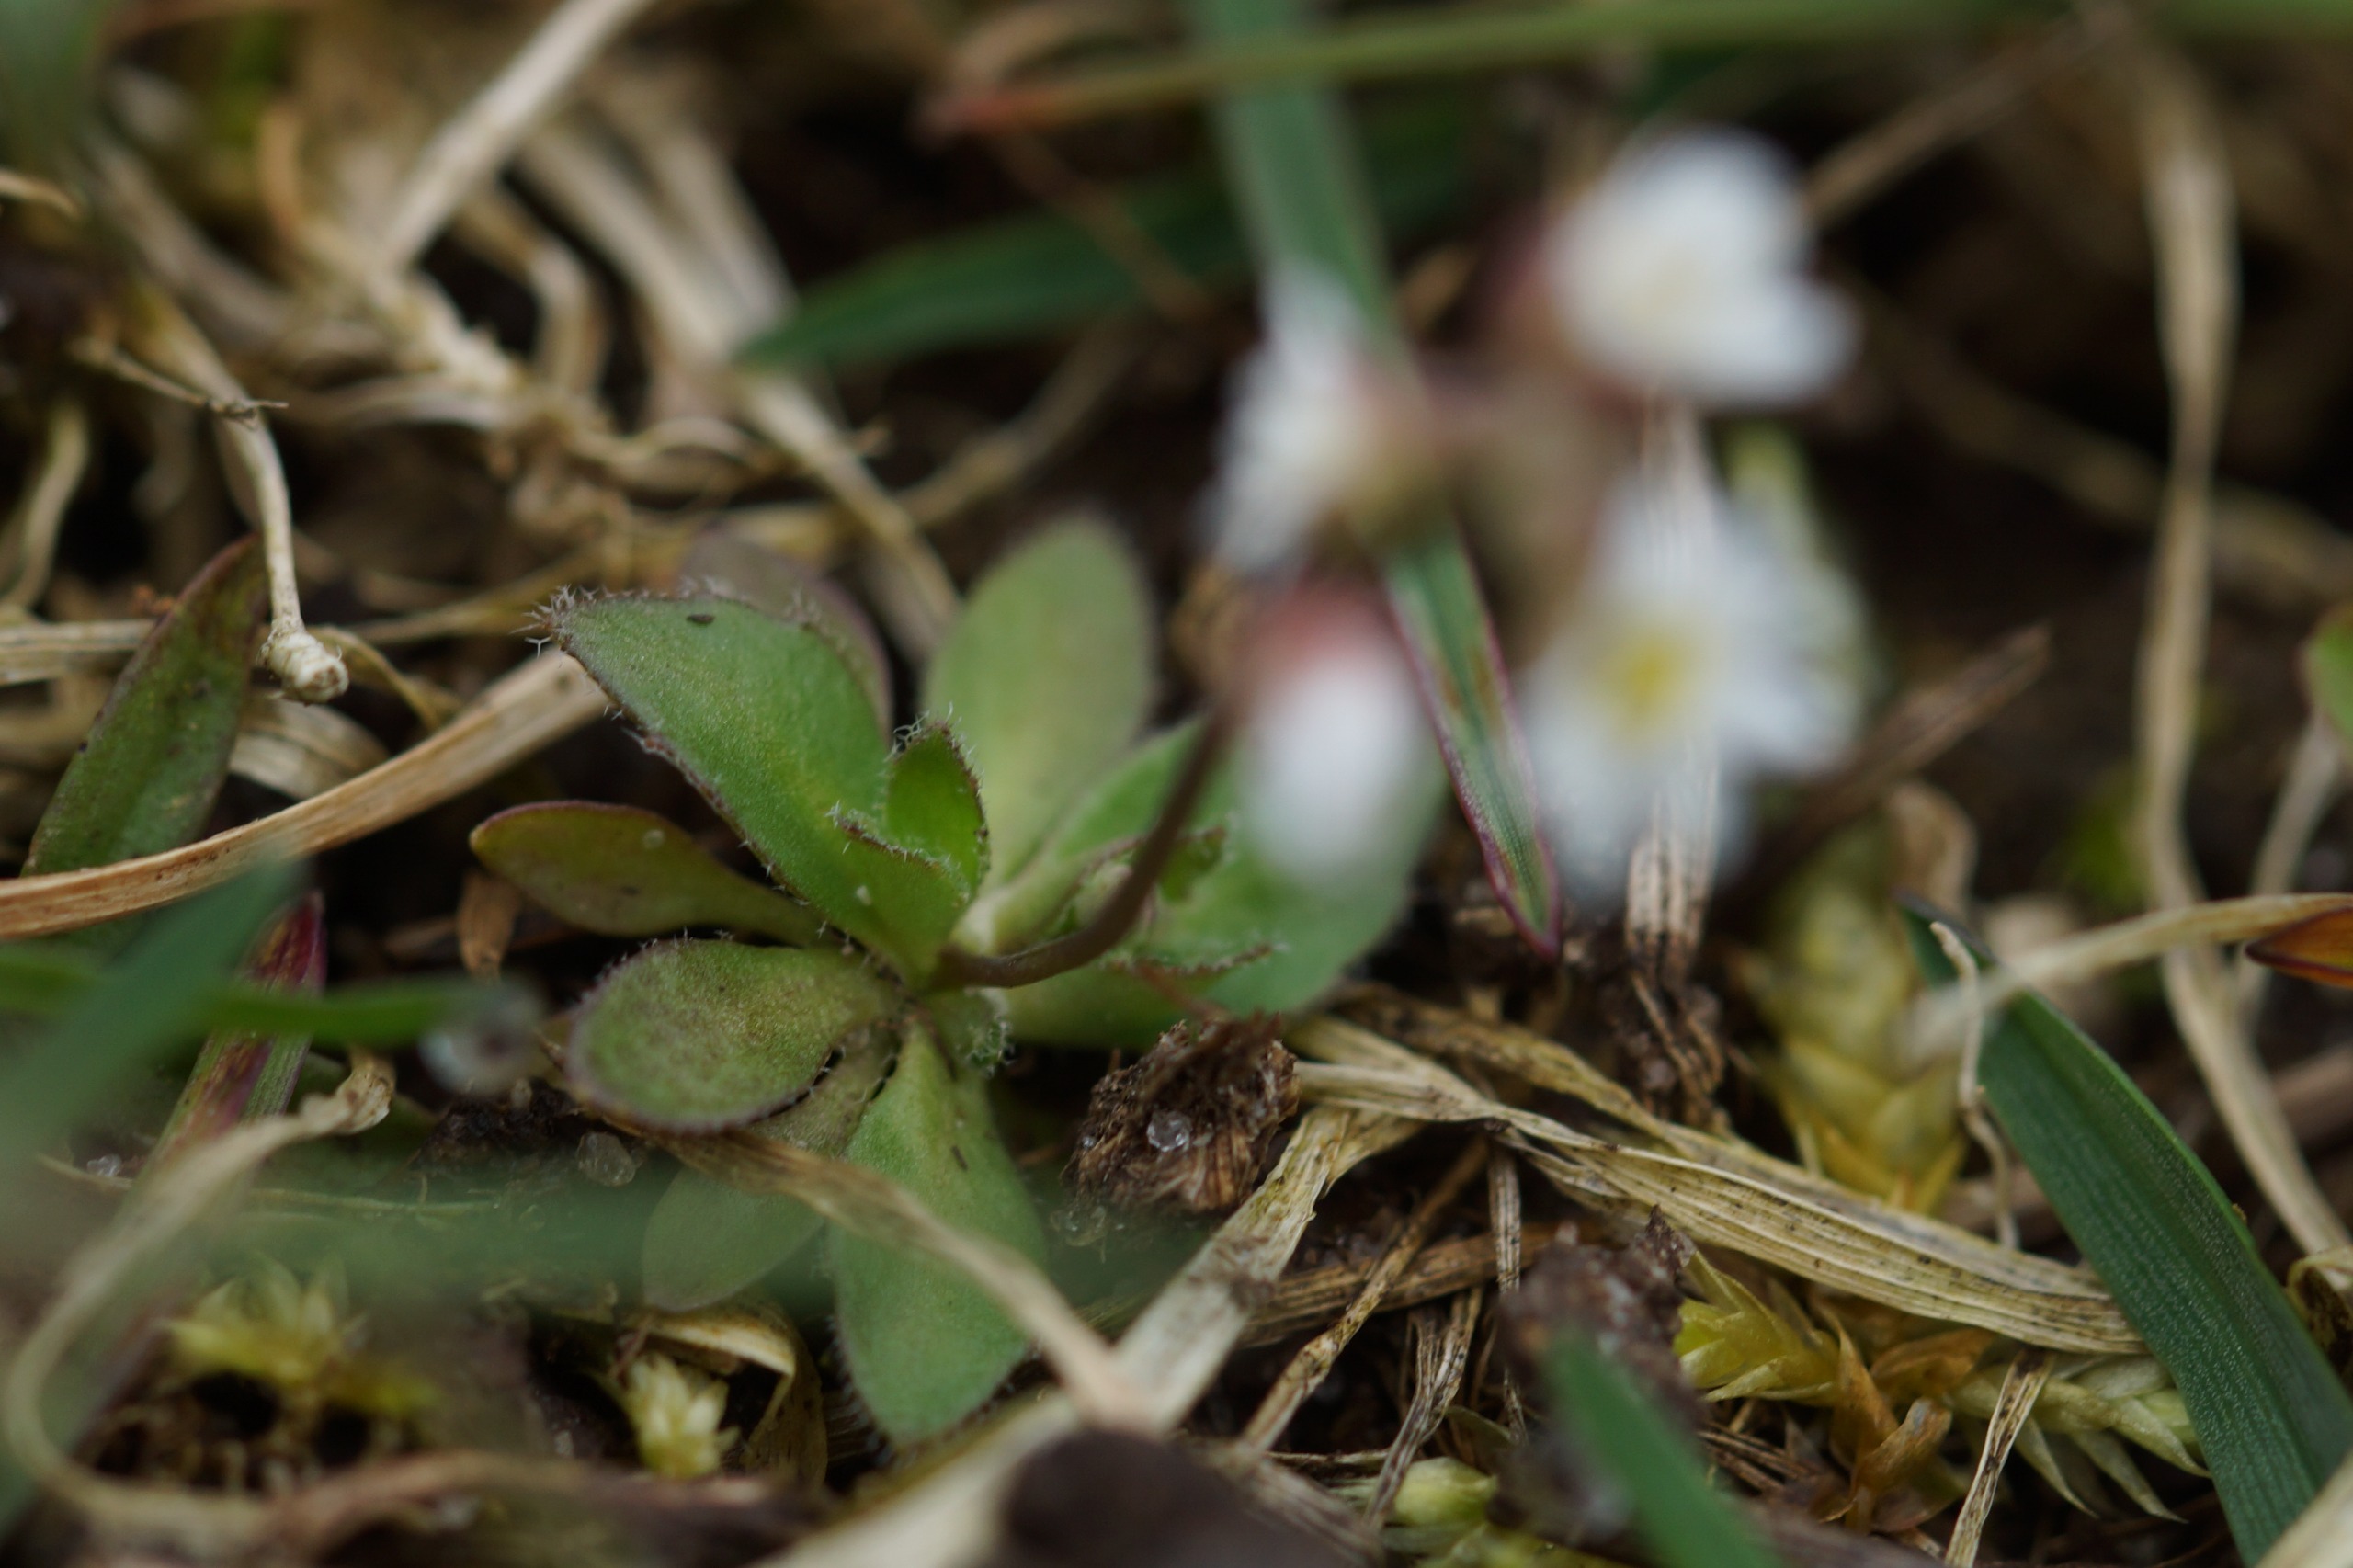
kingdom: Plantae
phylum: Tracheophyta
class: Magnoliopsida
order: Brassicales
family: Brassicaceae
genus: Draba
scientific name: Draba verna
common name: Vår-gæslingeblomst
